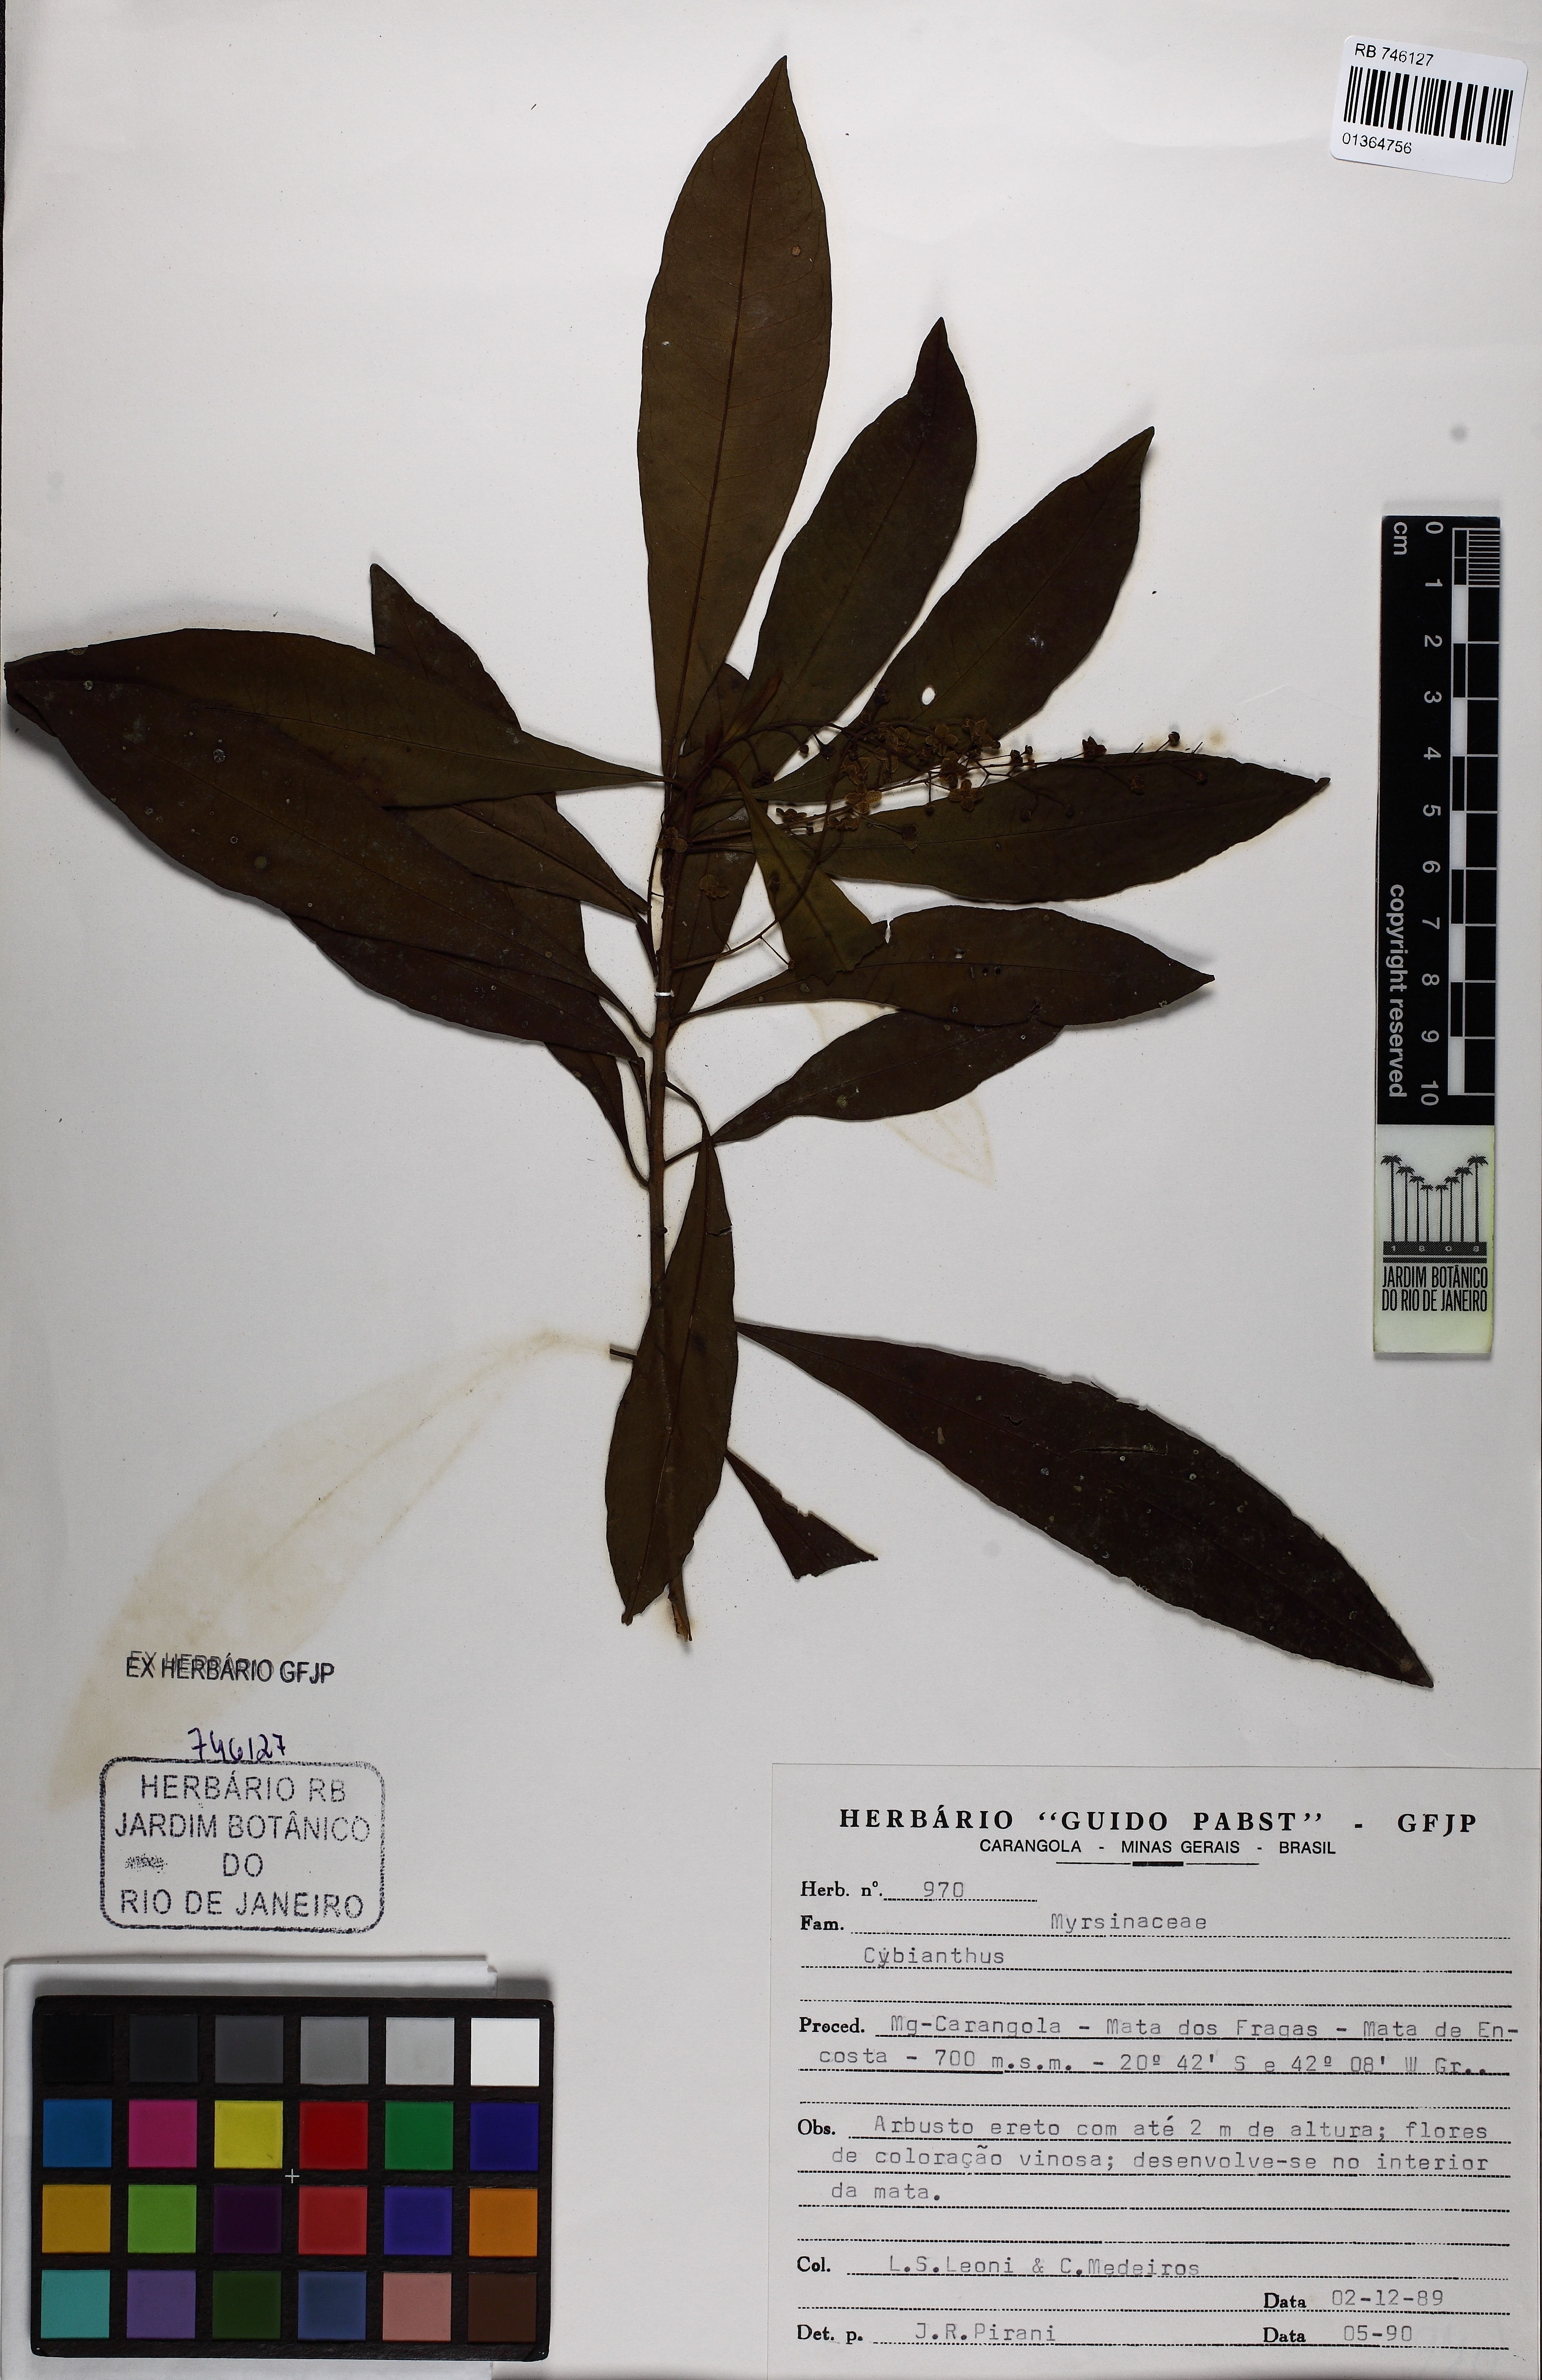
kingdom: Plantae
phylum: Tracheophyta
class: Magnoliopsida
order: Ericales
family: Primulaceae
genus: Cybianthus
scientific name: Cybianthus
